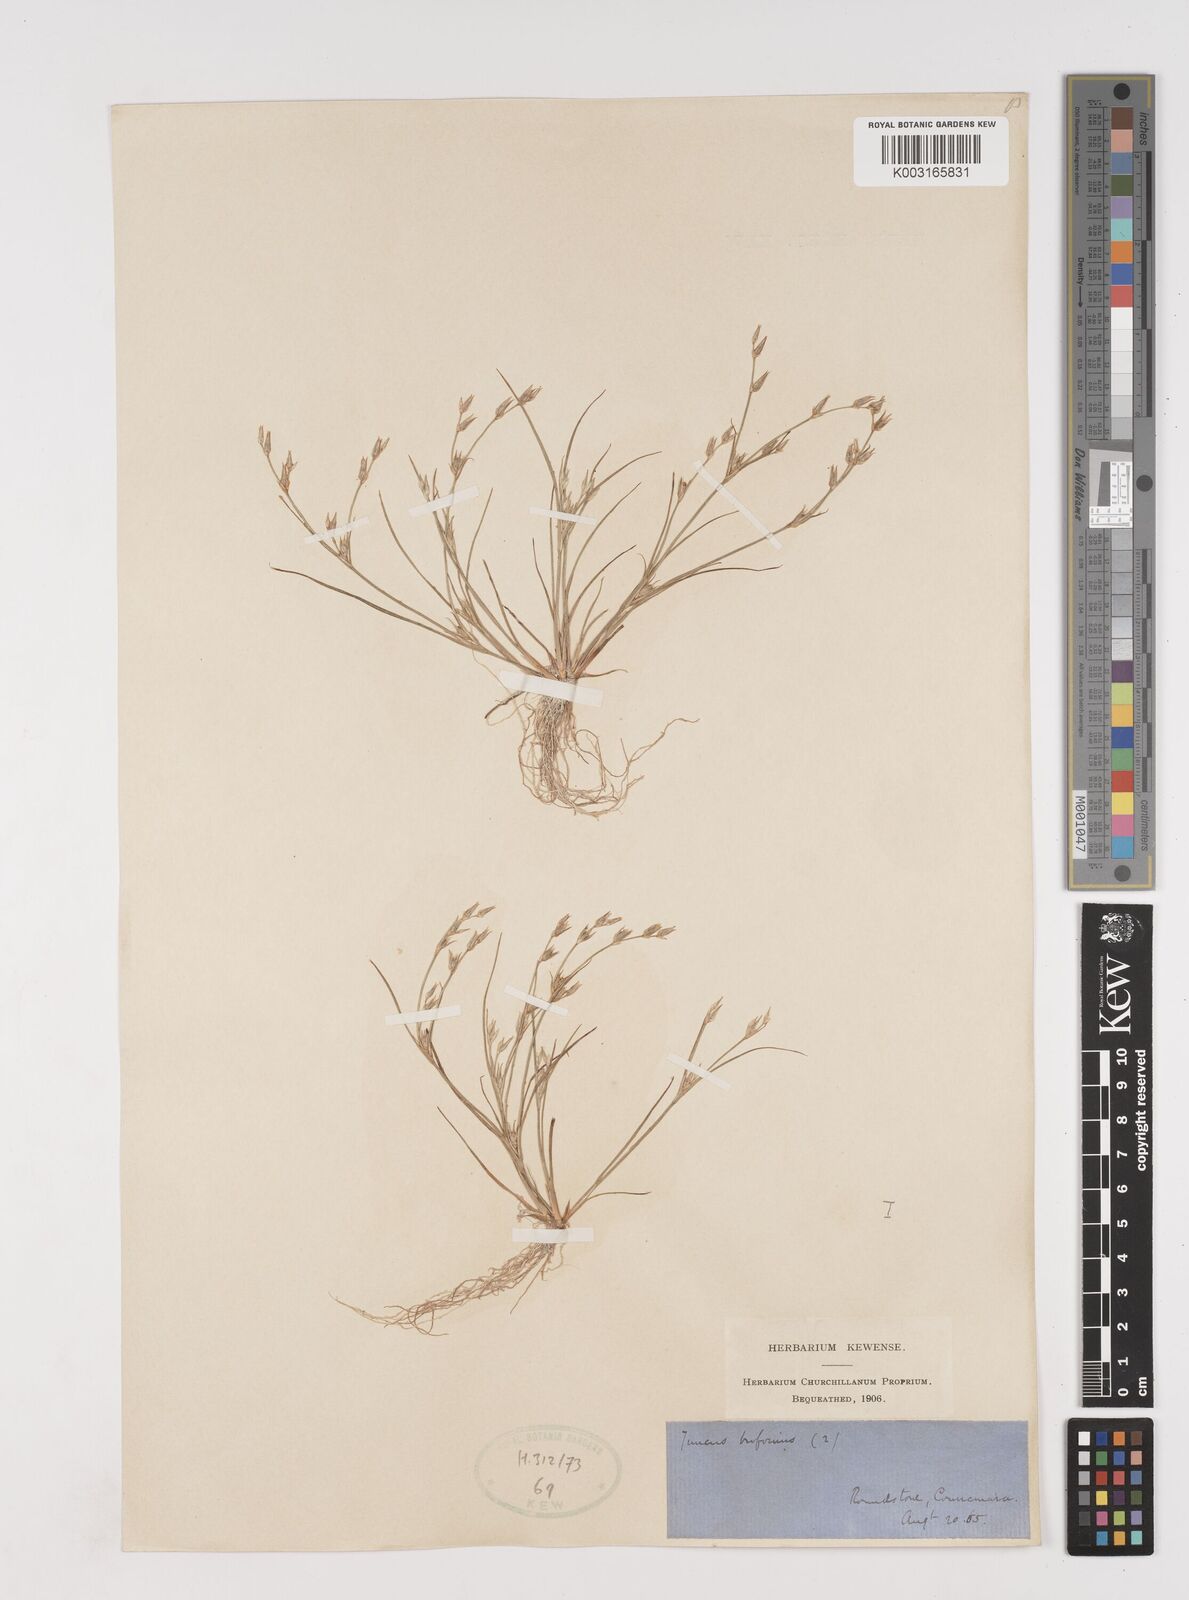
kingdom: Plantae
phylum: Tracheophyta
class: Liliopsida
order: Poales
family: Juncaceae
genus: Juncus
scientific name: Juncus bufonius
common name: Toad rush
